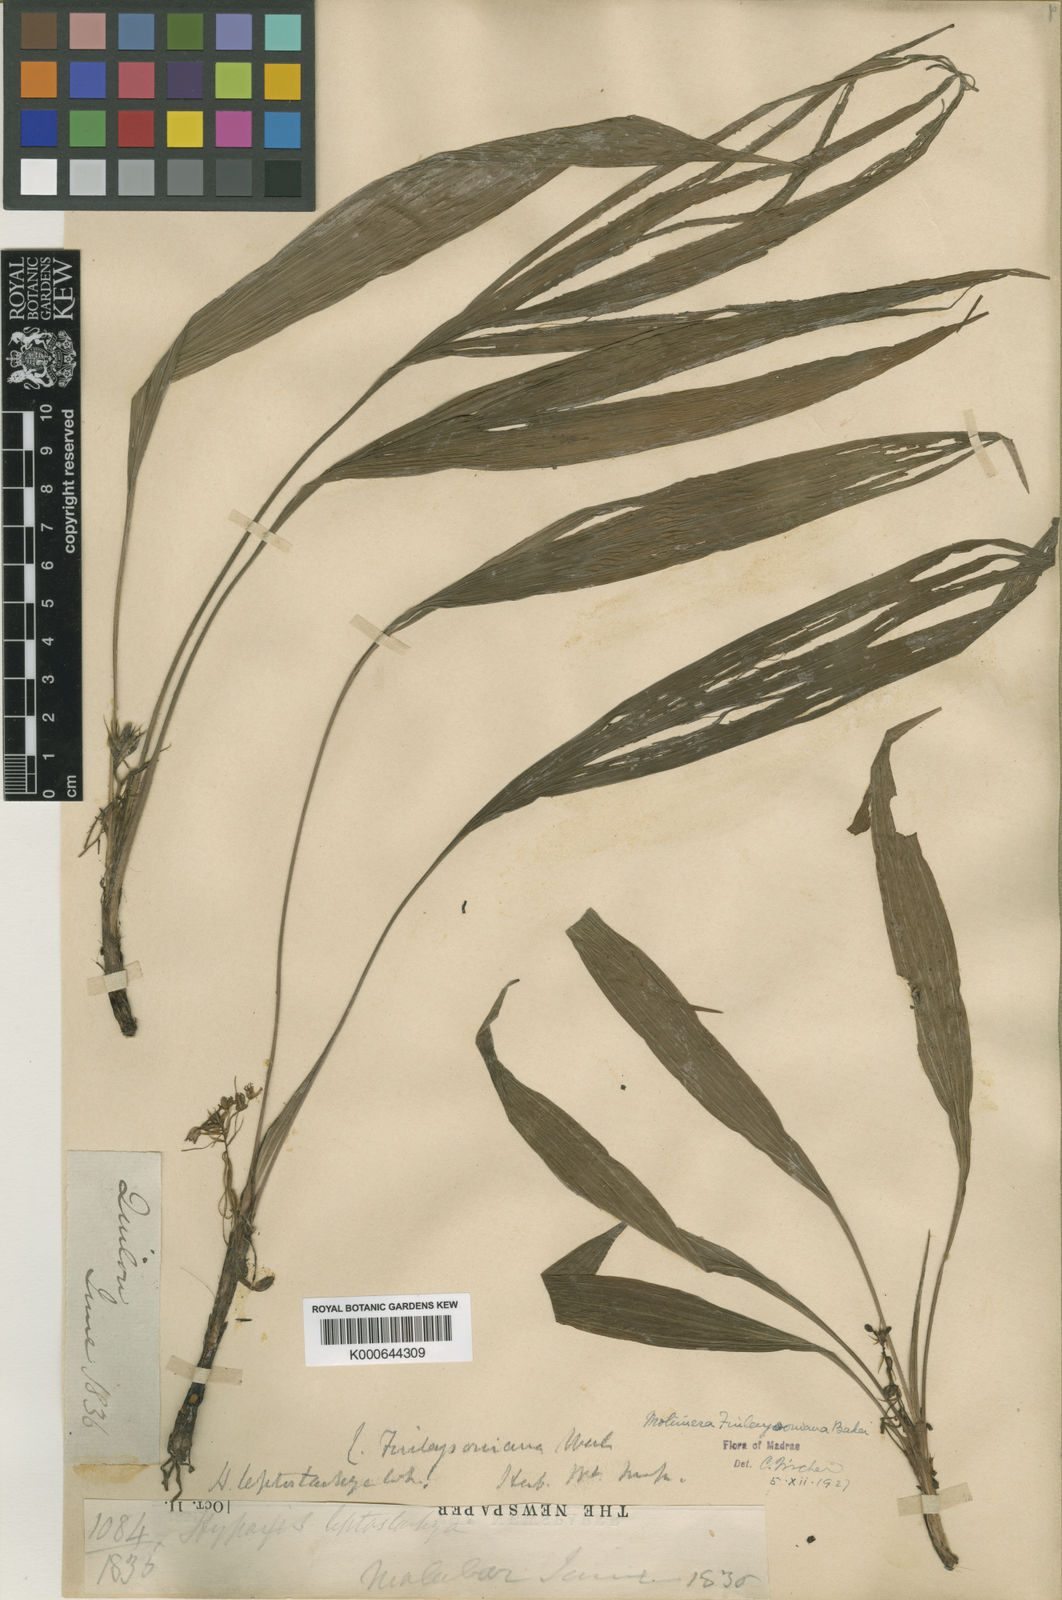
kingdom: Plantae
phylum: Tracheophyta
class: Liliopsida
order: Asparagales
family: Hypoxidaceae
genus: Curculigo
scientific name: Curculigo trichocarpa
